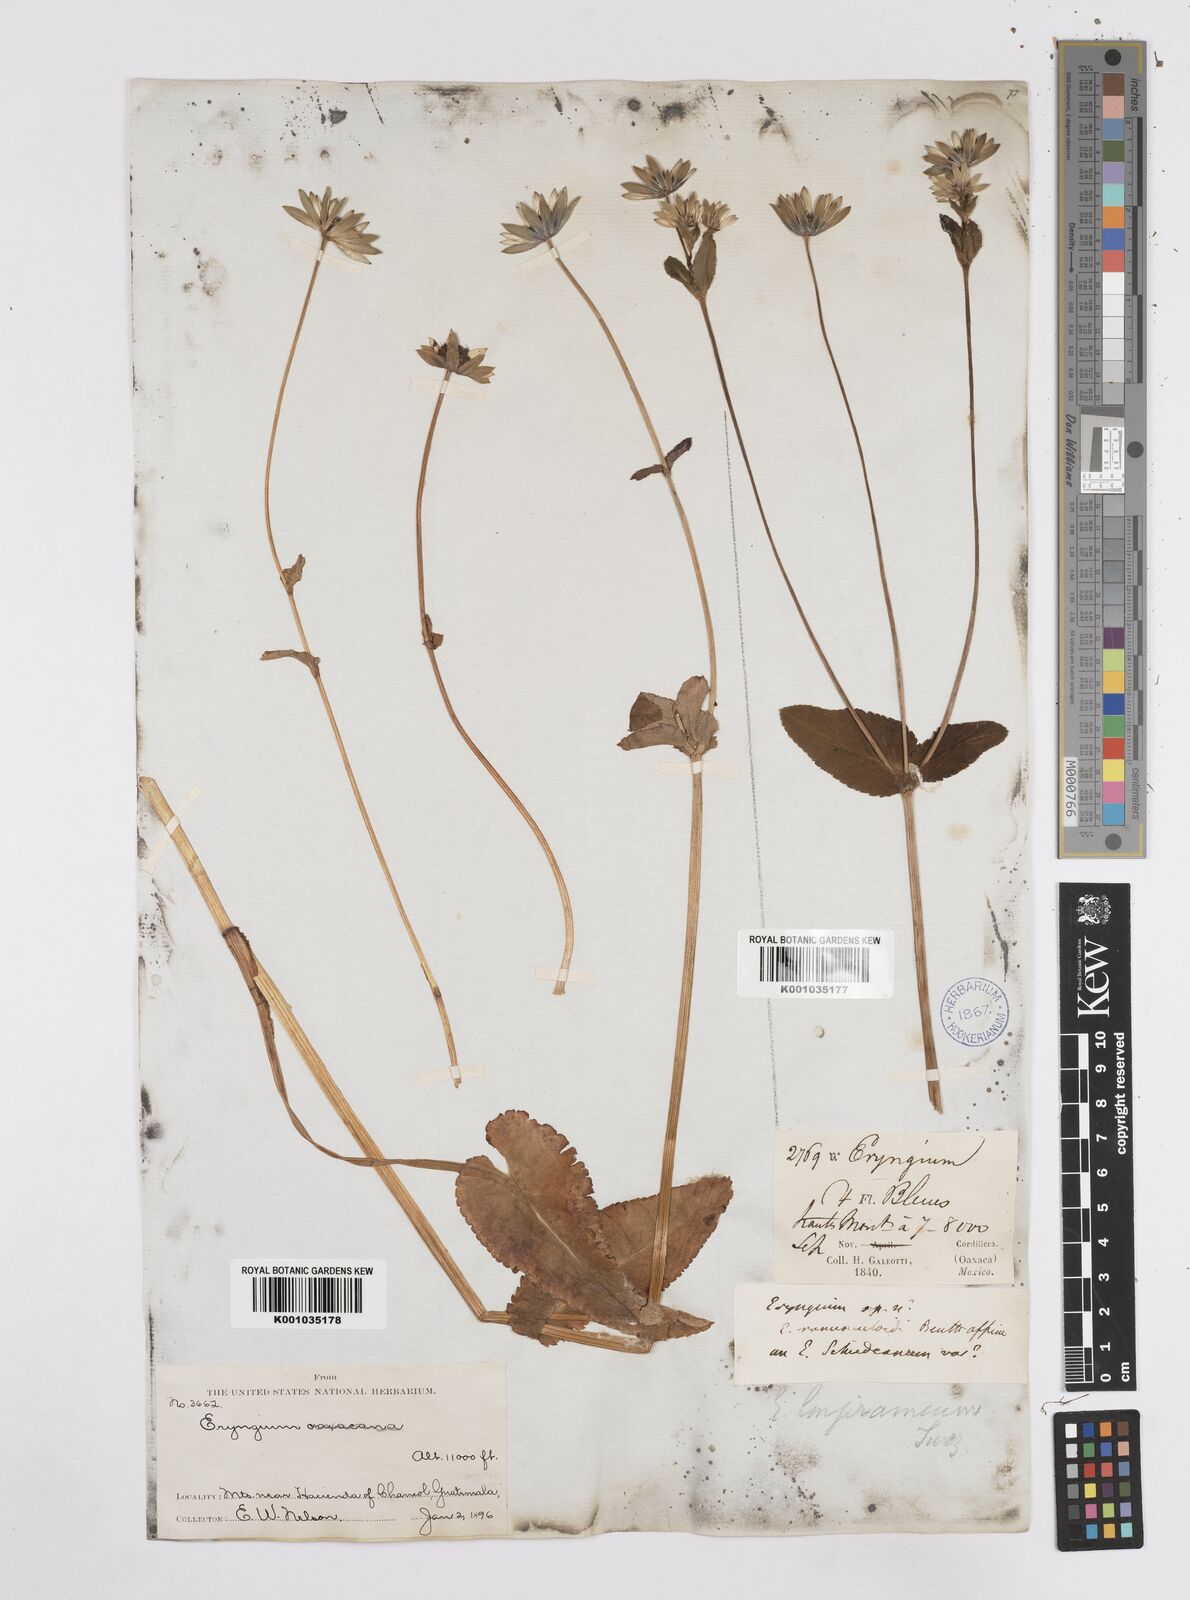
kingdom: Plantae
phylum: Tracheophyta
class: Magnoliopsida
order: Apiales
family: Apiaceae
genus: Eryngium
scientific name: Eryngium gracile
